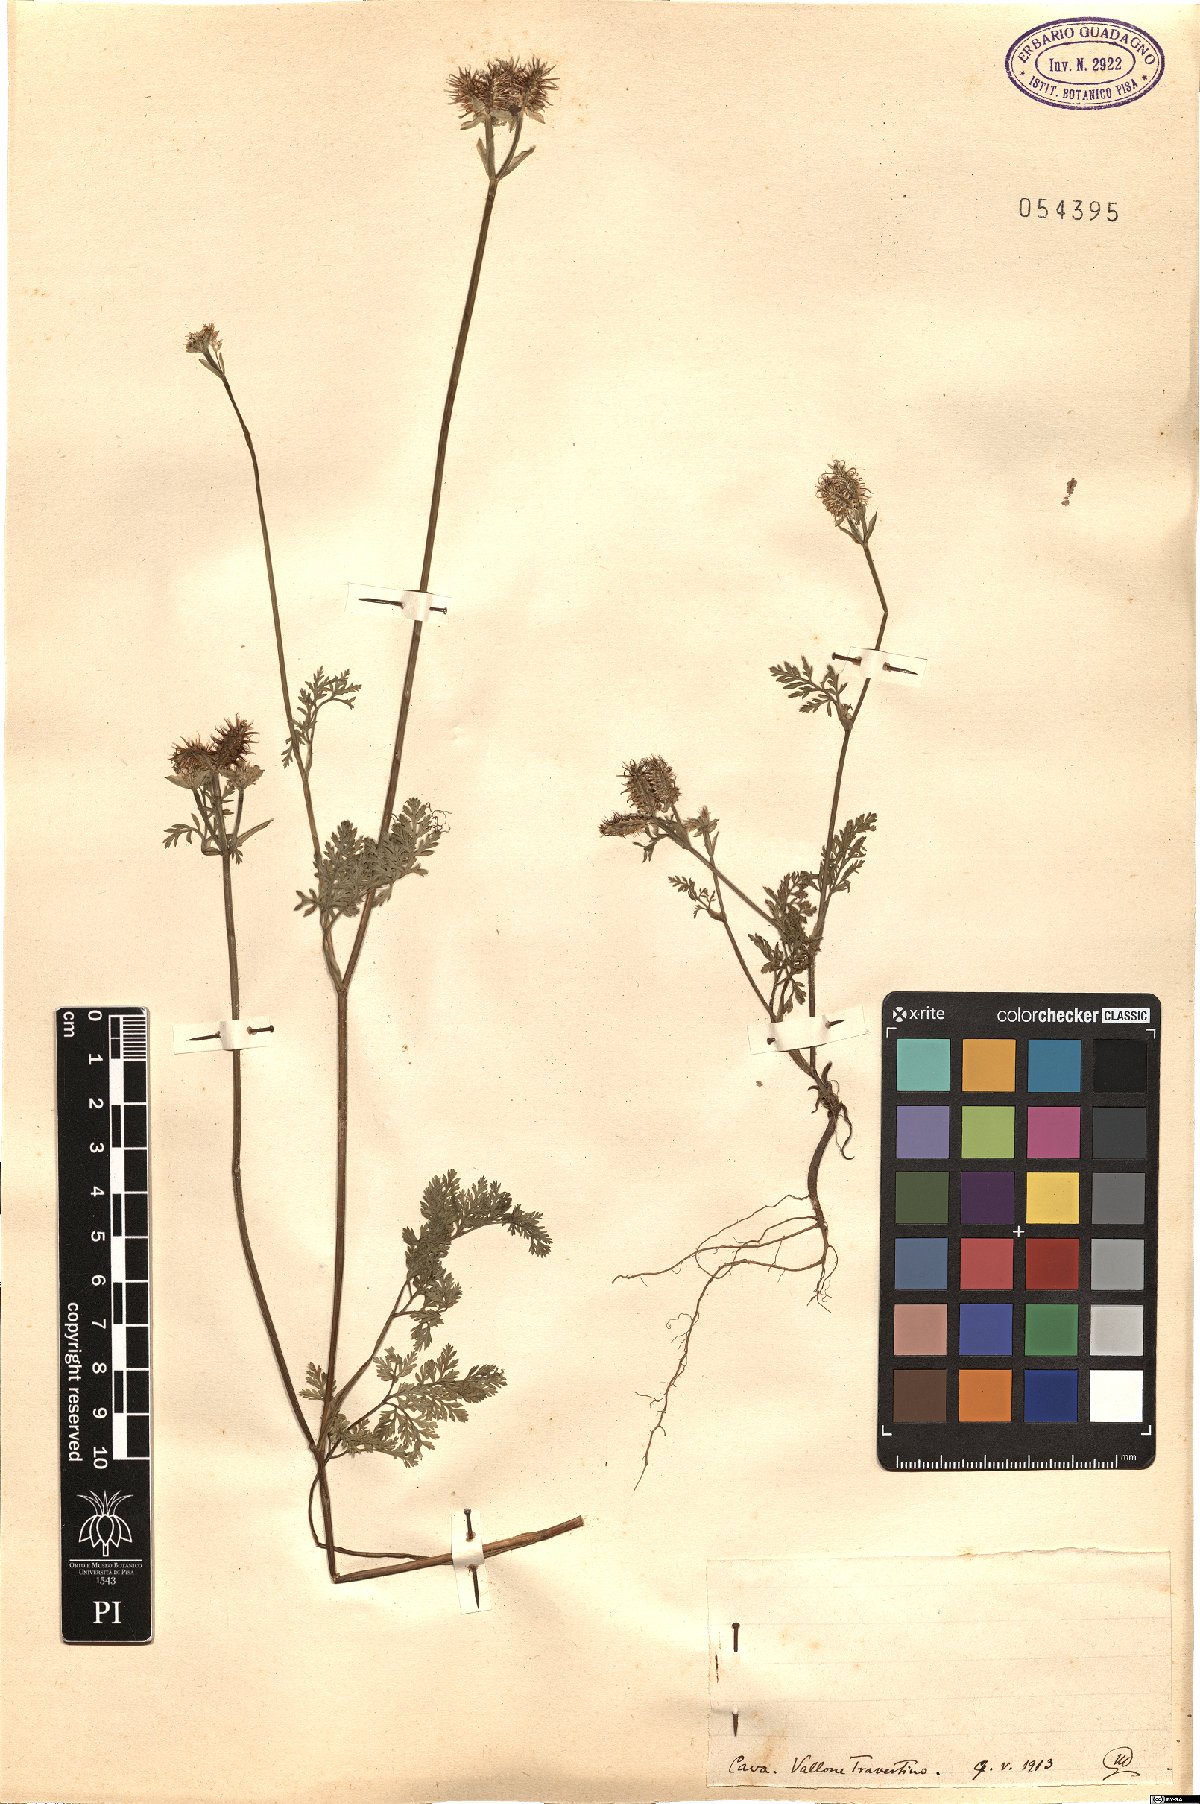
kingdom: Plantae
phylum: Tracheophyta
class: Magnoliopsida
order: Apiales
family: Apiaceae
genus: Daucus
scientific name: Daucus
